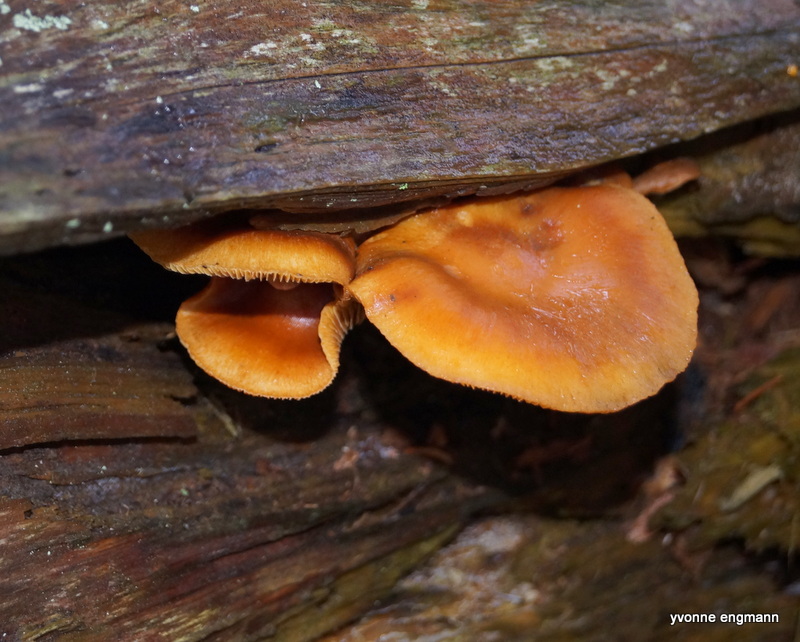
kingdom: Fungi
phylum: Basidiomycota
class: Agaricomycetes
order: Agaricales
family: Physalacriaceae
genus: Flammulina
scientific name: Flammulina
